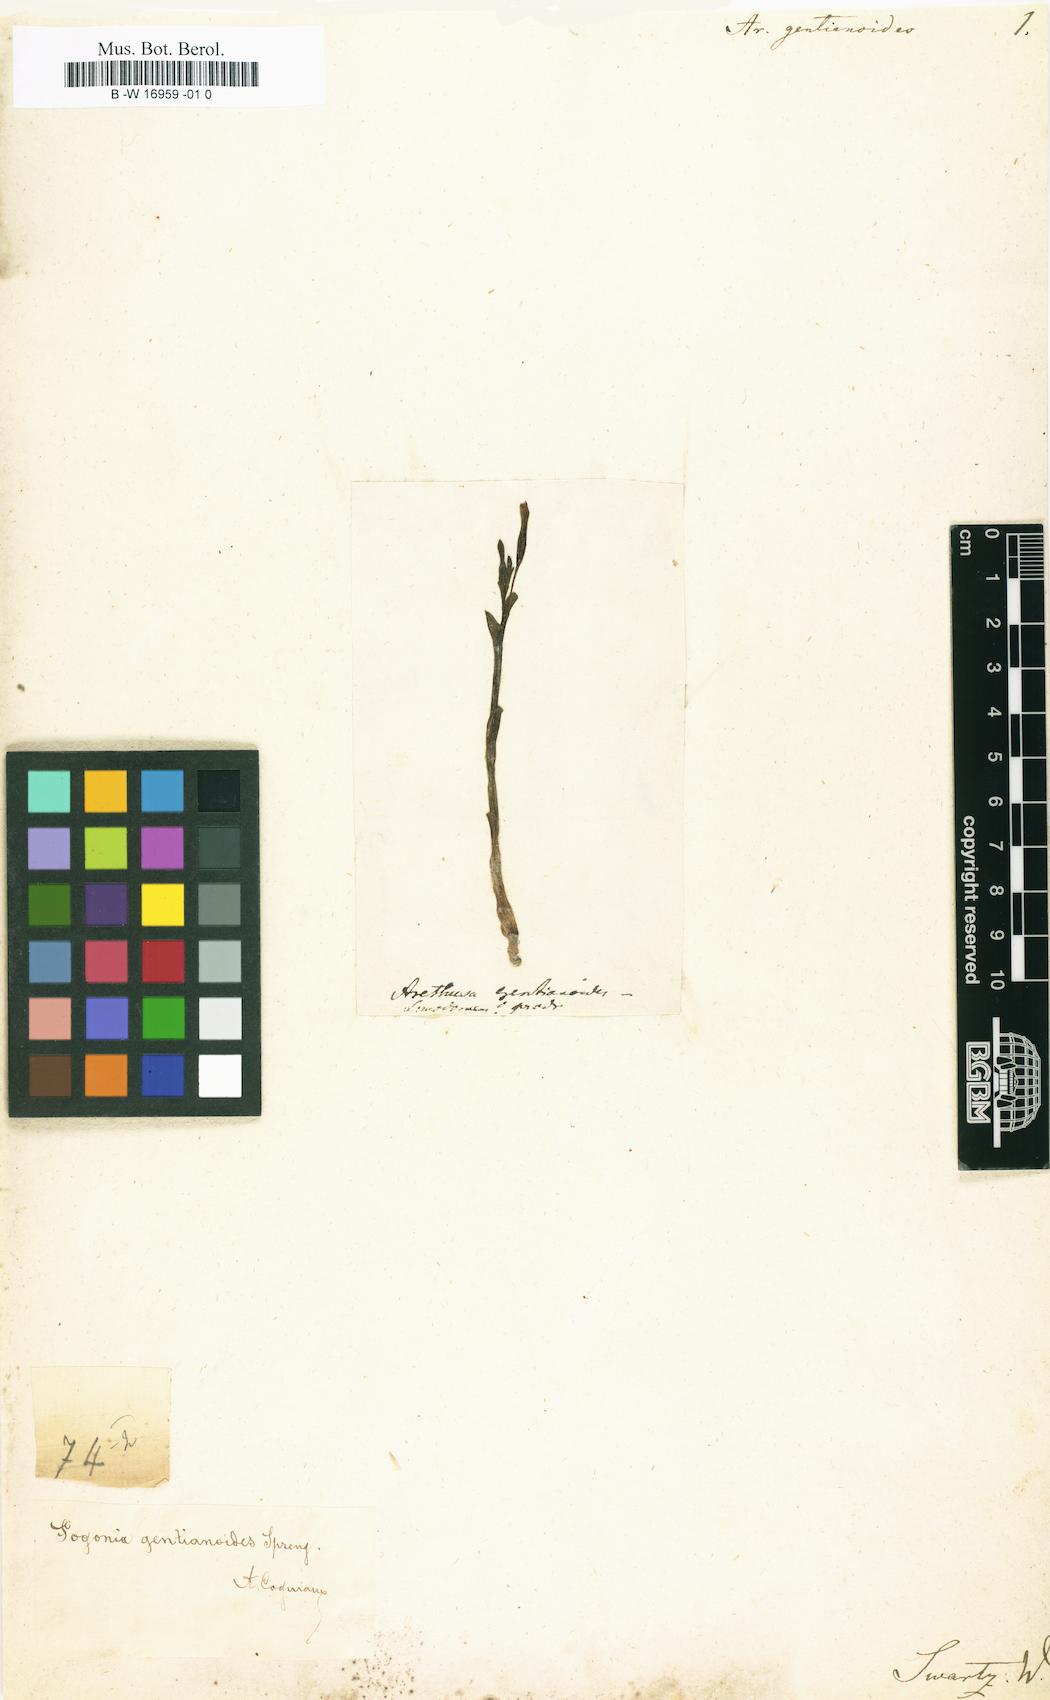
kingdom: Plantae
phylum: Tracheophyta
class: Liliopsida
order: Asparagales
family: Orchidaceae
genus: Triphora
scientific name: Triphora gentianoides
